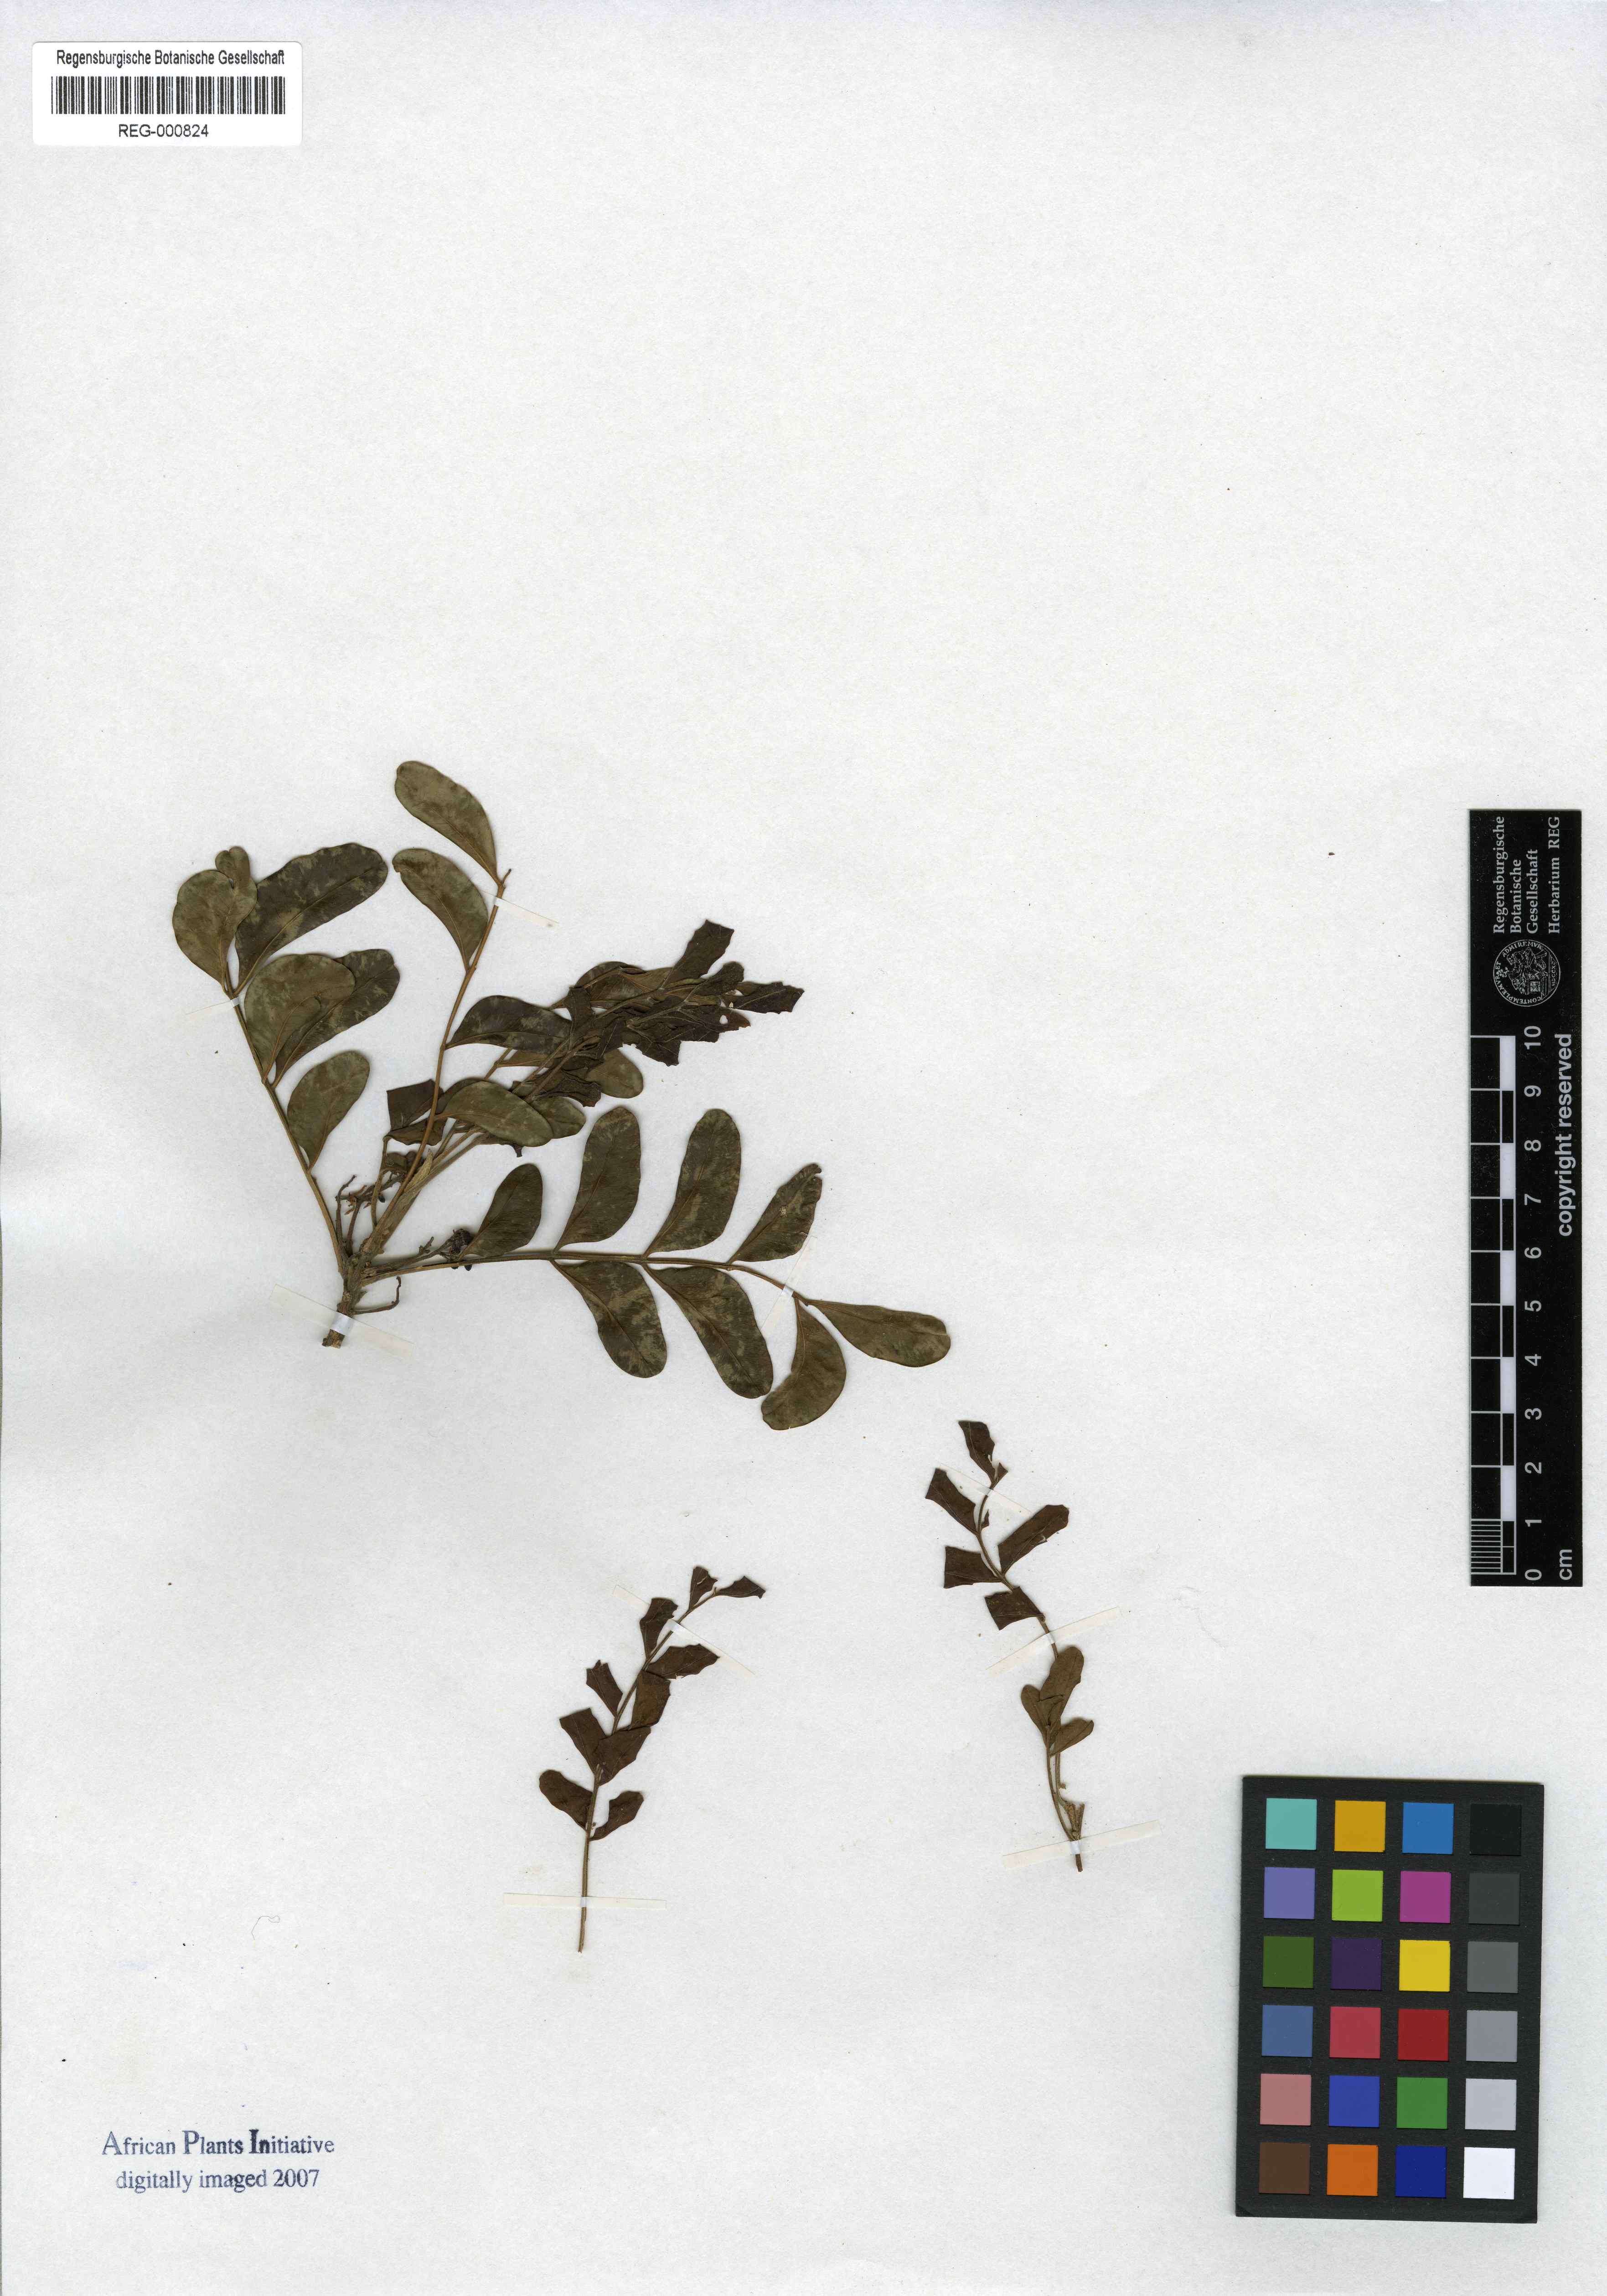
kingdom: Plantae
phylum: Tracheophyta
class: Magnoliopsida
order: Sapindales
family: Rutaceae
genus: Ptaeroxylon
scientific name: Ptaeroxylon obliquum
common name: Sneezewood
